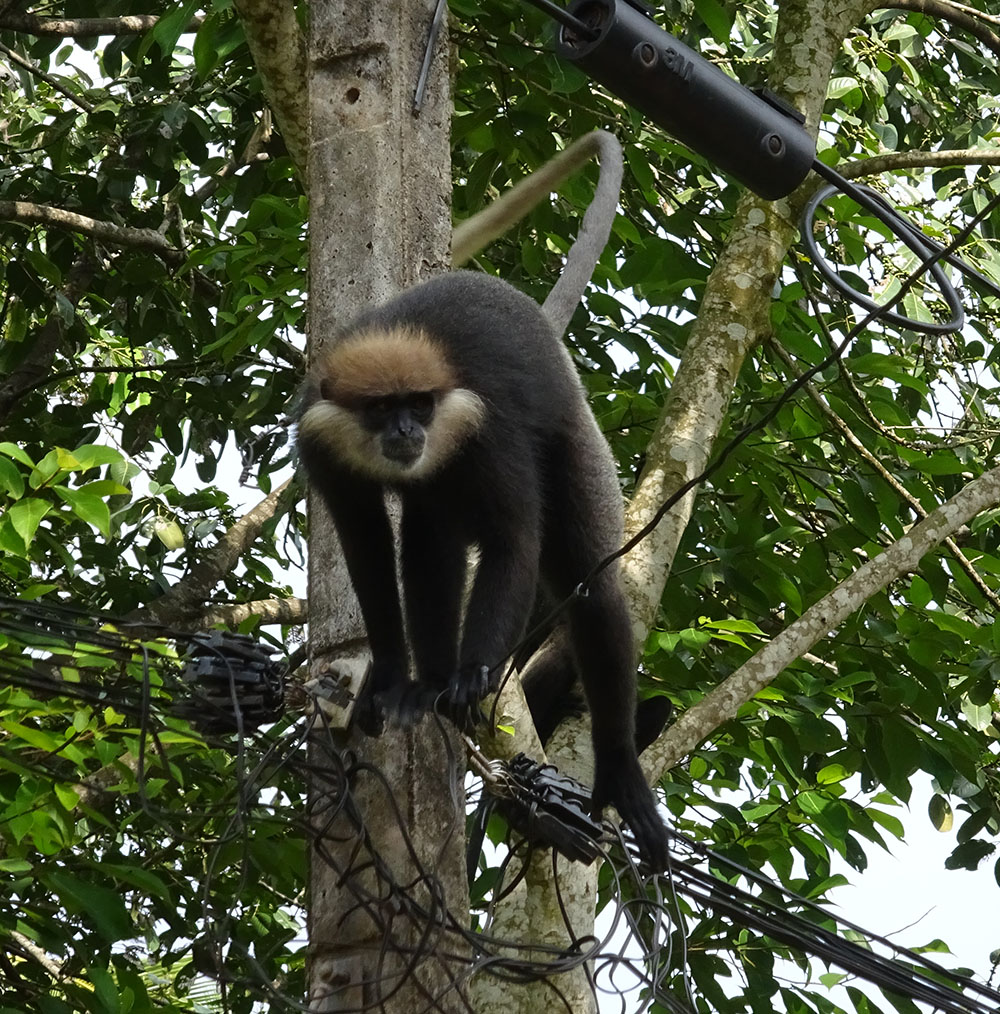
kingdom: Animalia
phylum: Chordata
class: Mammalia
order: Primates
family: Cercopithecidae
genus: Semnopithecus
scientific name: Semnopithecus vetulus
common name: Purple-faced langur
